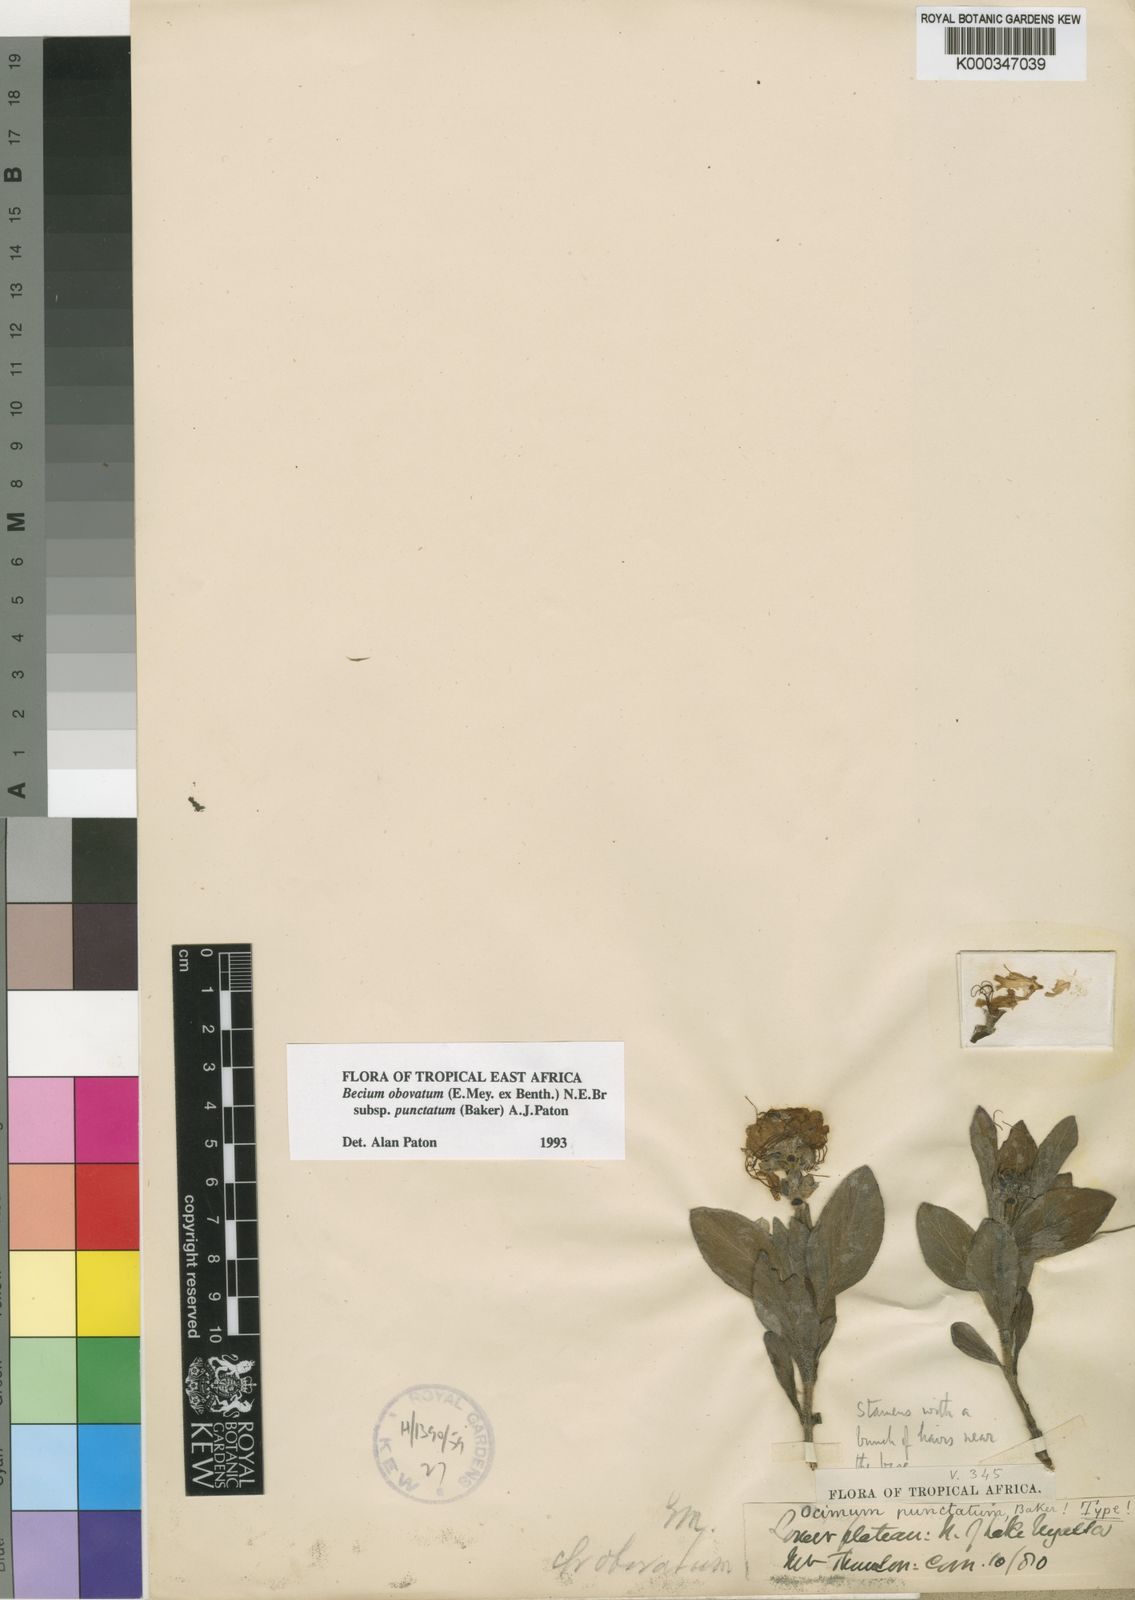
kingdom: Plantae
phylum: Tracheophyta
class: Magnoliopsida
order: Lamiales
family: Lamiaceae
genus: Ocimum
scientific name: Ocimum dambicola
